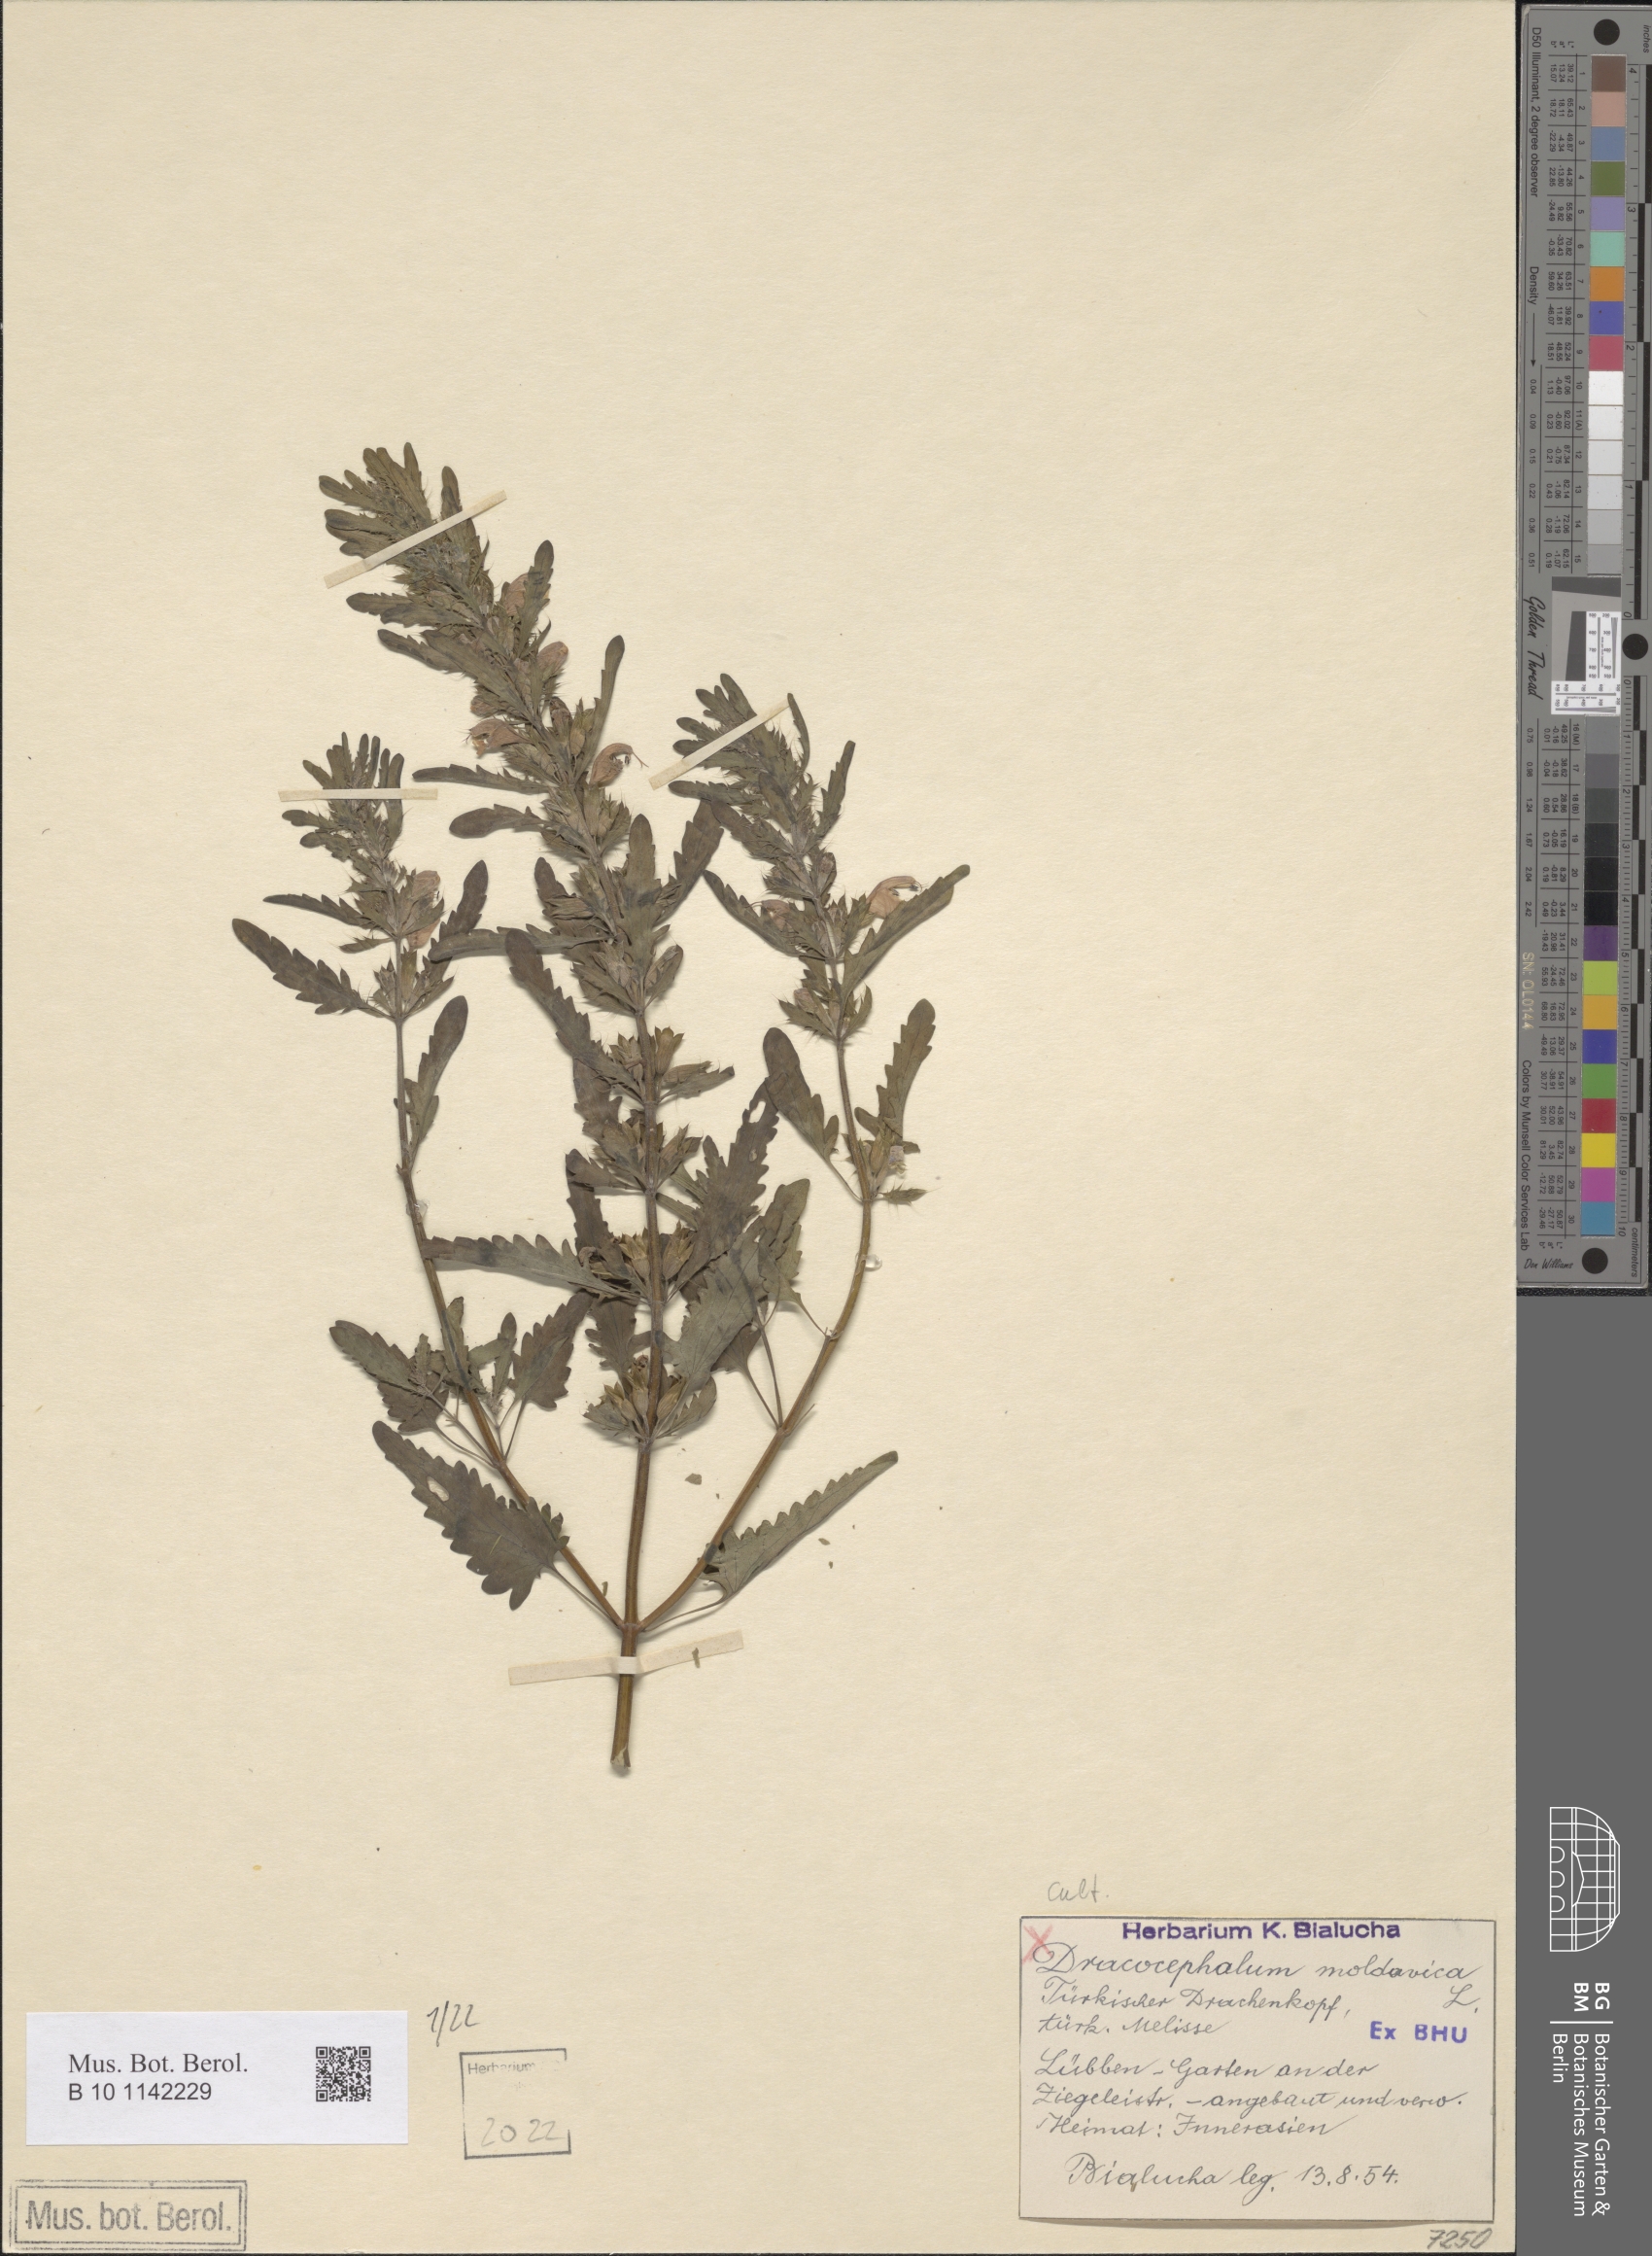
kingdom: Plantae
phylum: Tracheophyta
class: Magnoliopsida
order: Lamiales
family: Lamiaceae
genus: Dracocephalum
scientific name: Dracocephalum moldavica
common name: Moldavian dragonhead
